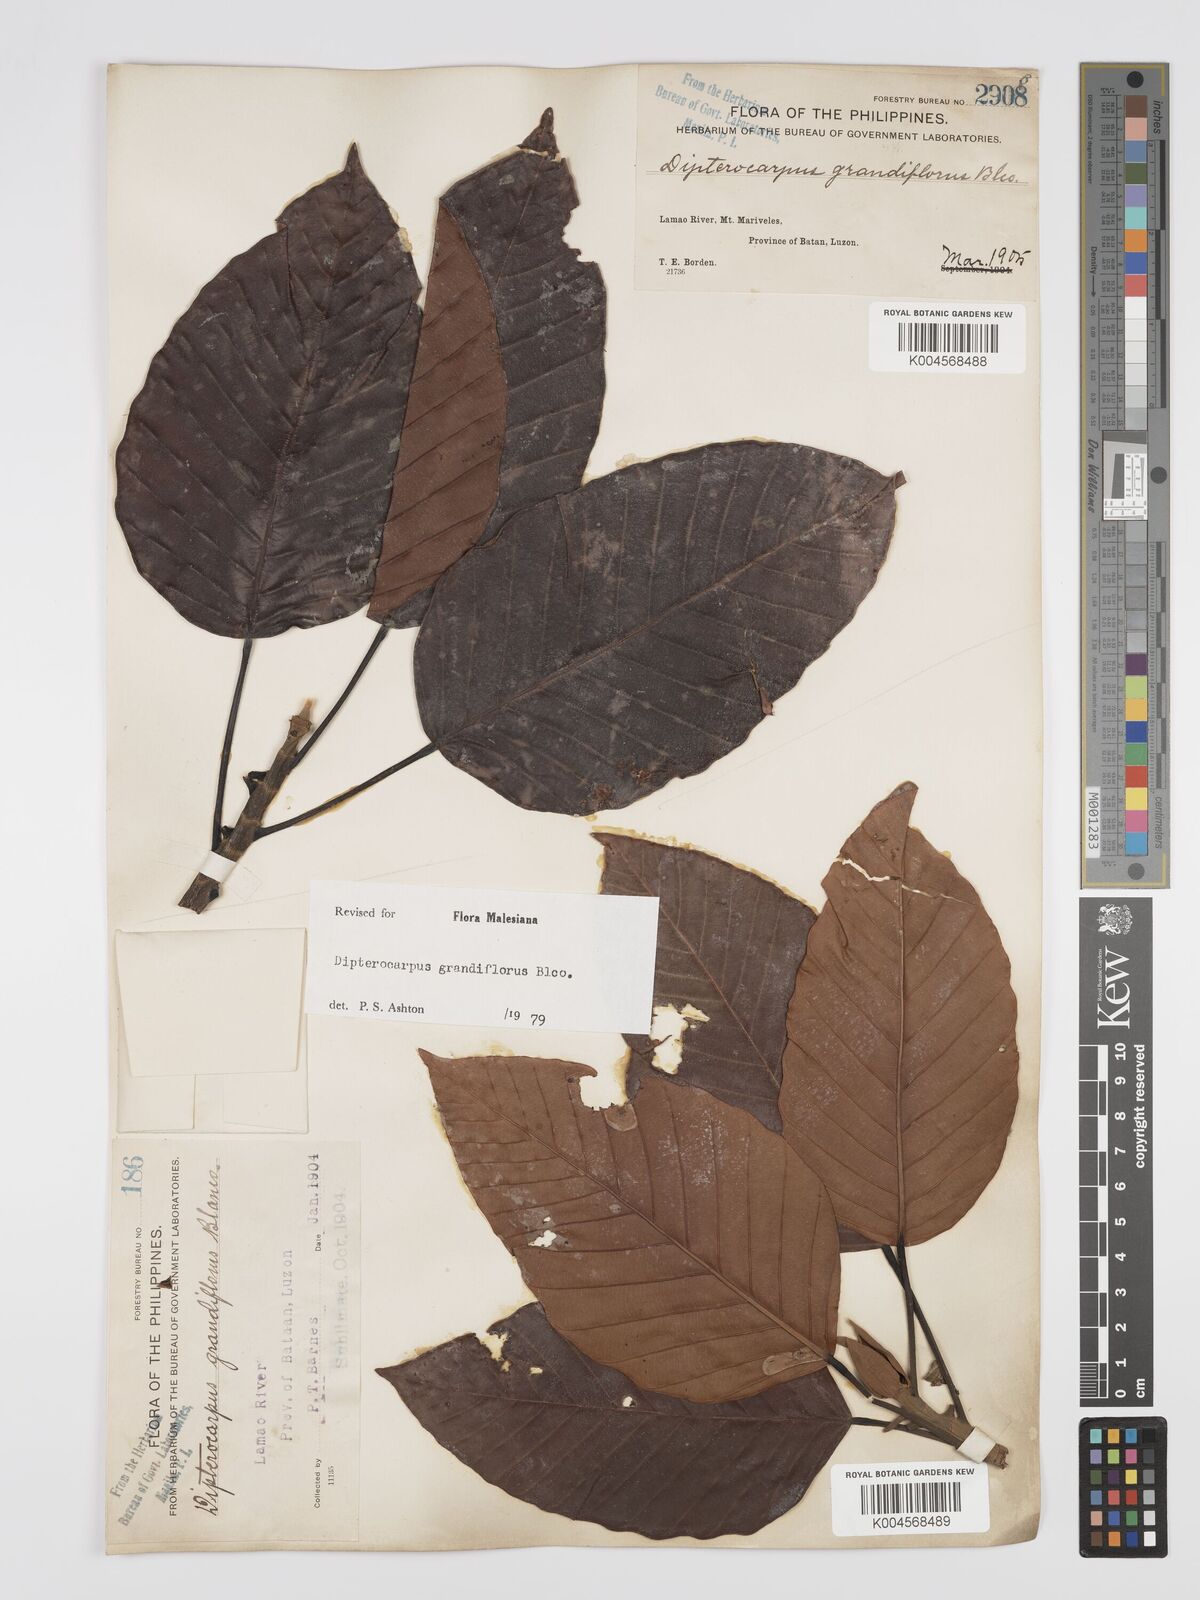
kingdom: Plantae
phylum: Tracheophyta
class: Magnoliopsida
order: Malvales
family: Dipterocarpaceae
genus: Dipterocarpus
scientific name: Dipterocarpus grandiflorus
